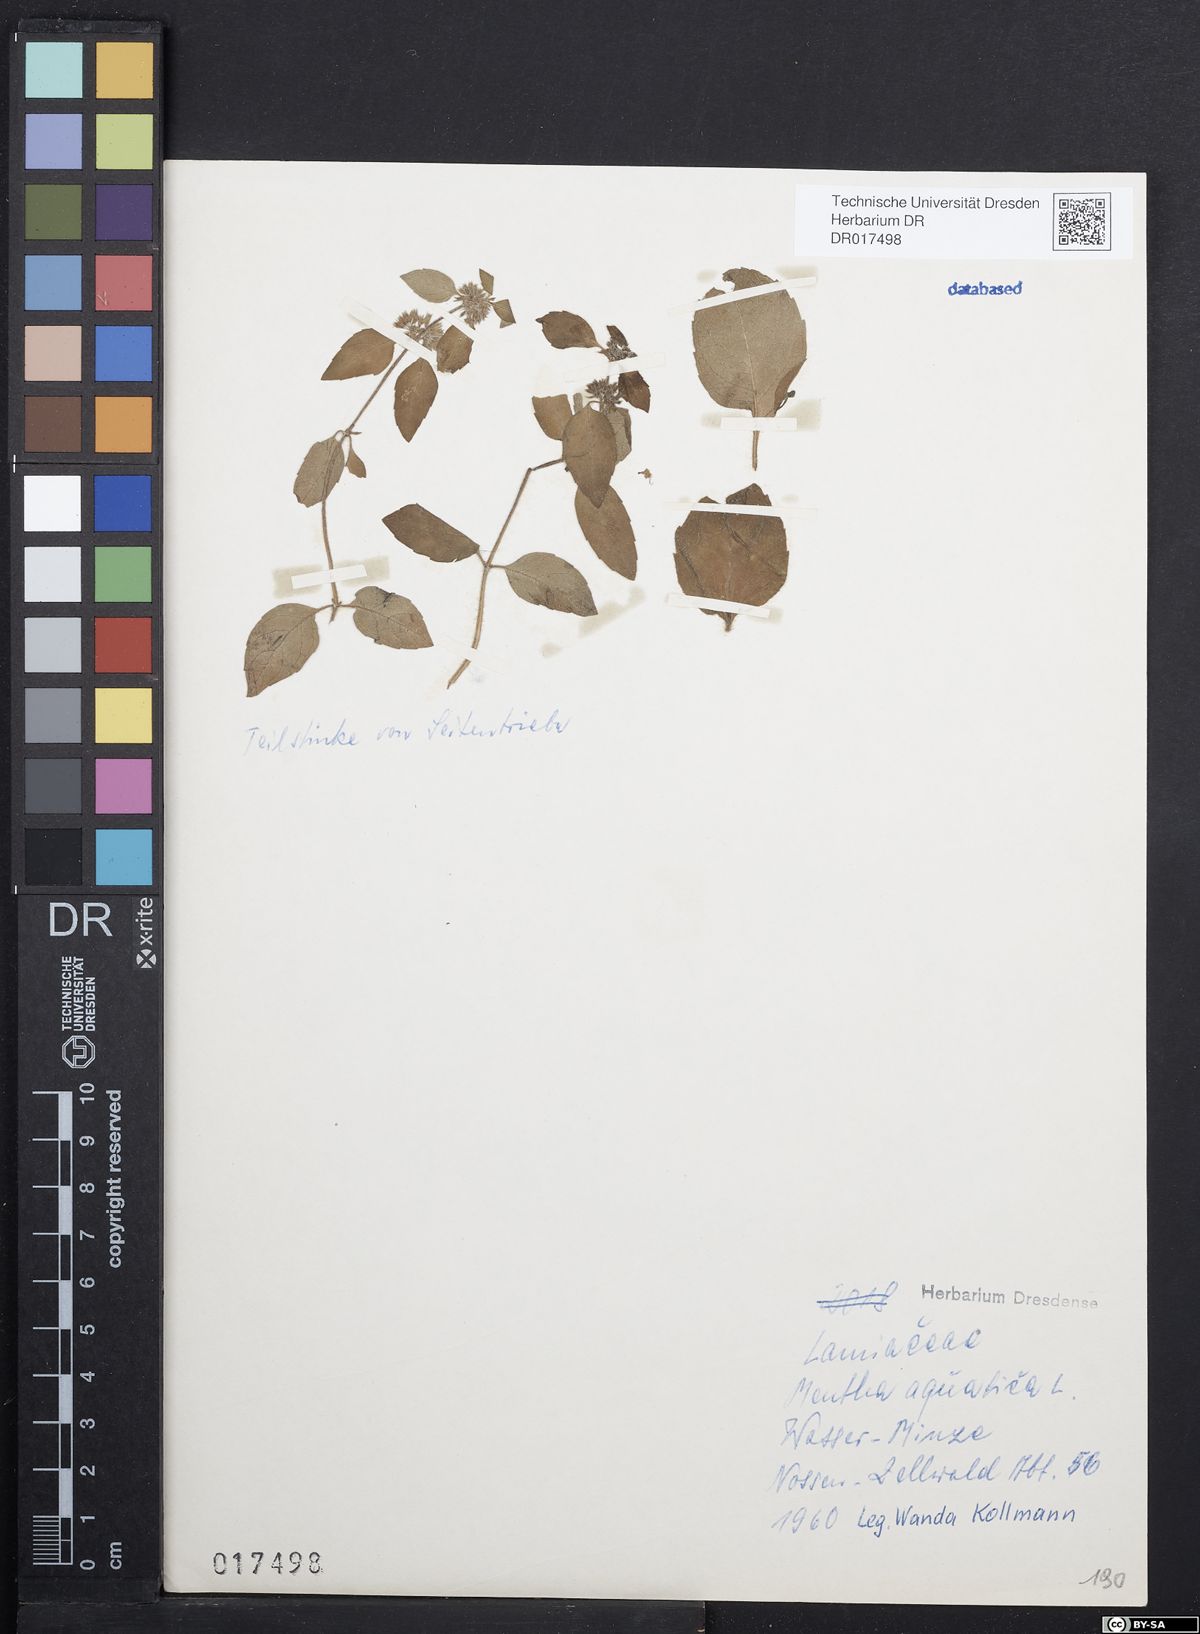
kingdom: Plantae
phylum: Tracheophyta
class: Magnoliopsida
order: Lamiales
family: Lamiaceae
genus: Mentha
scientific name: Mentha aquatica
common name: Water mint
